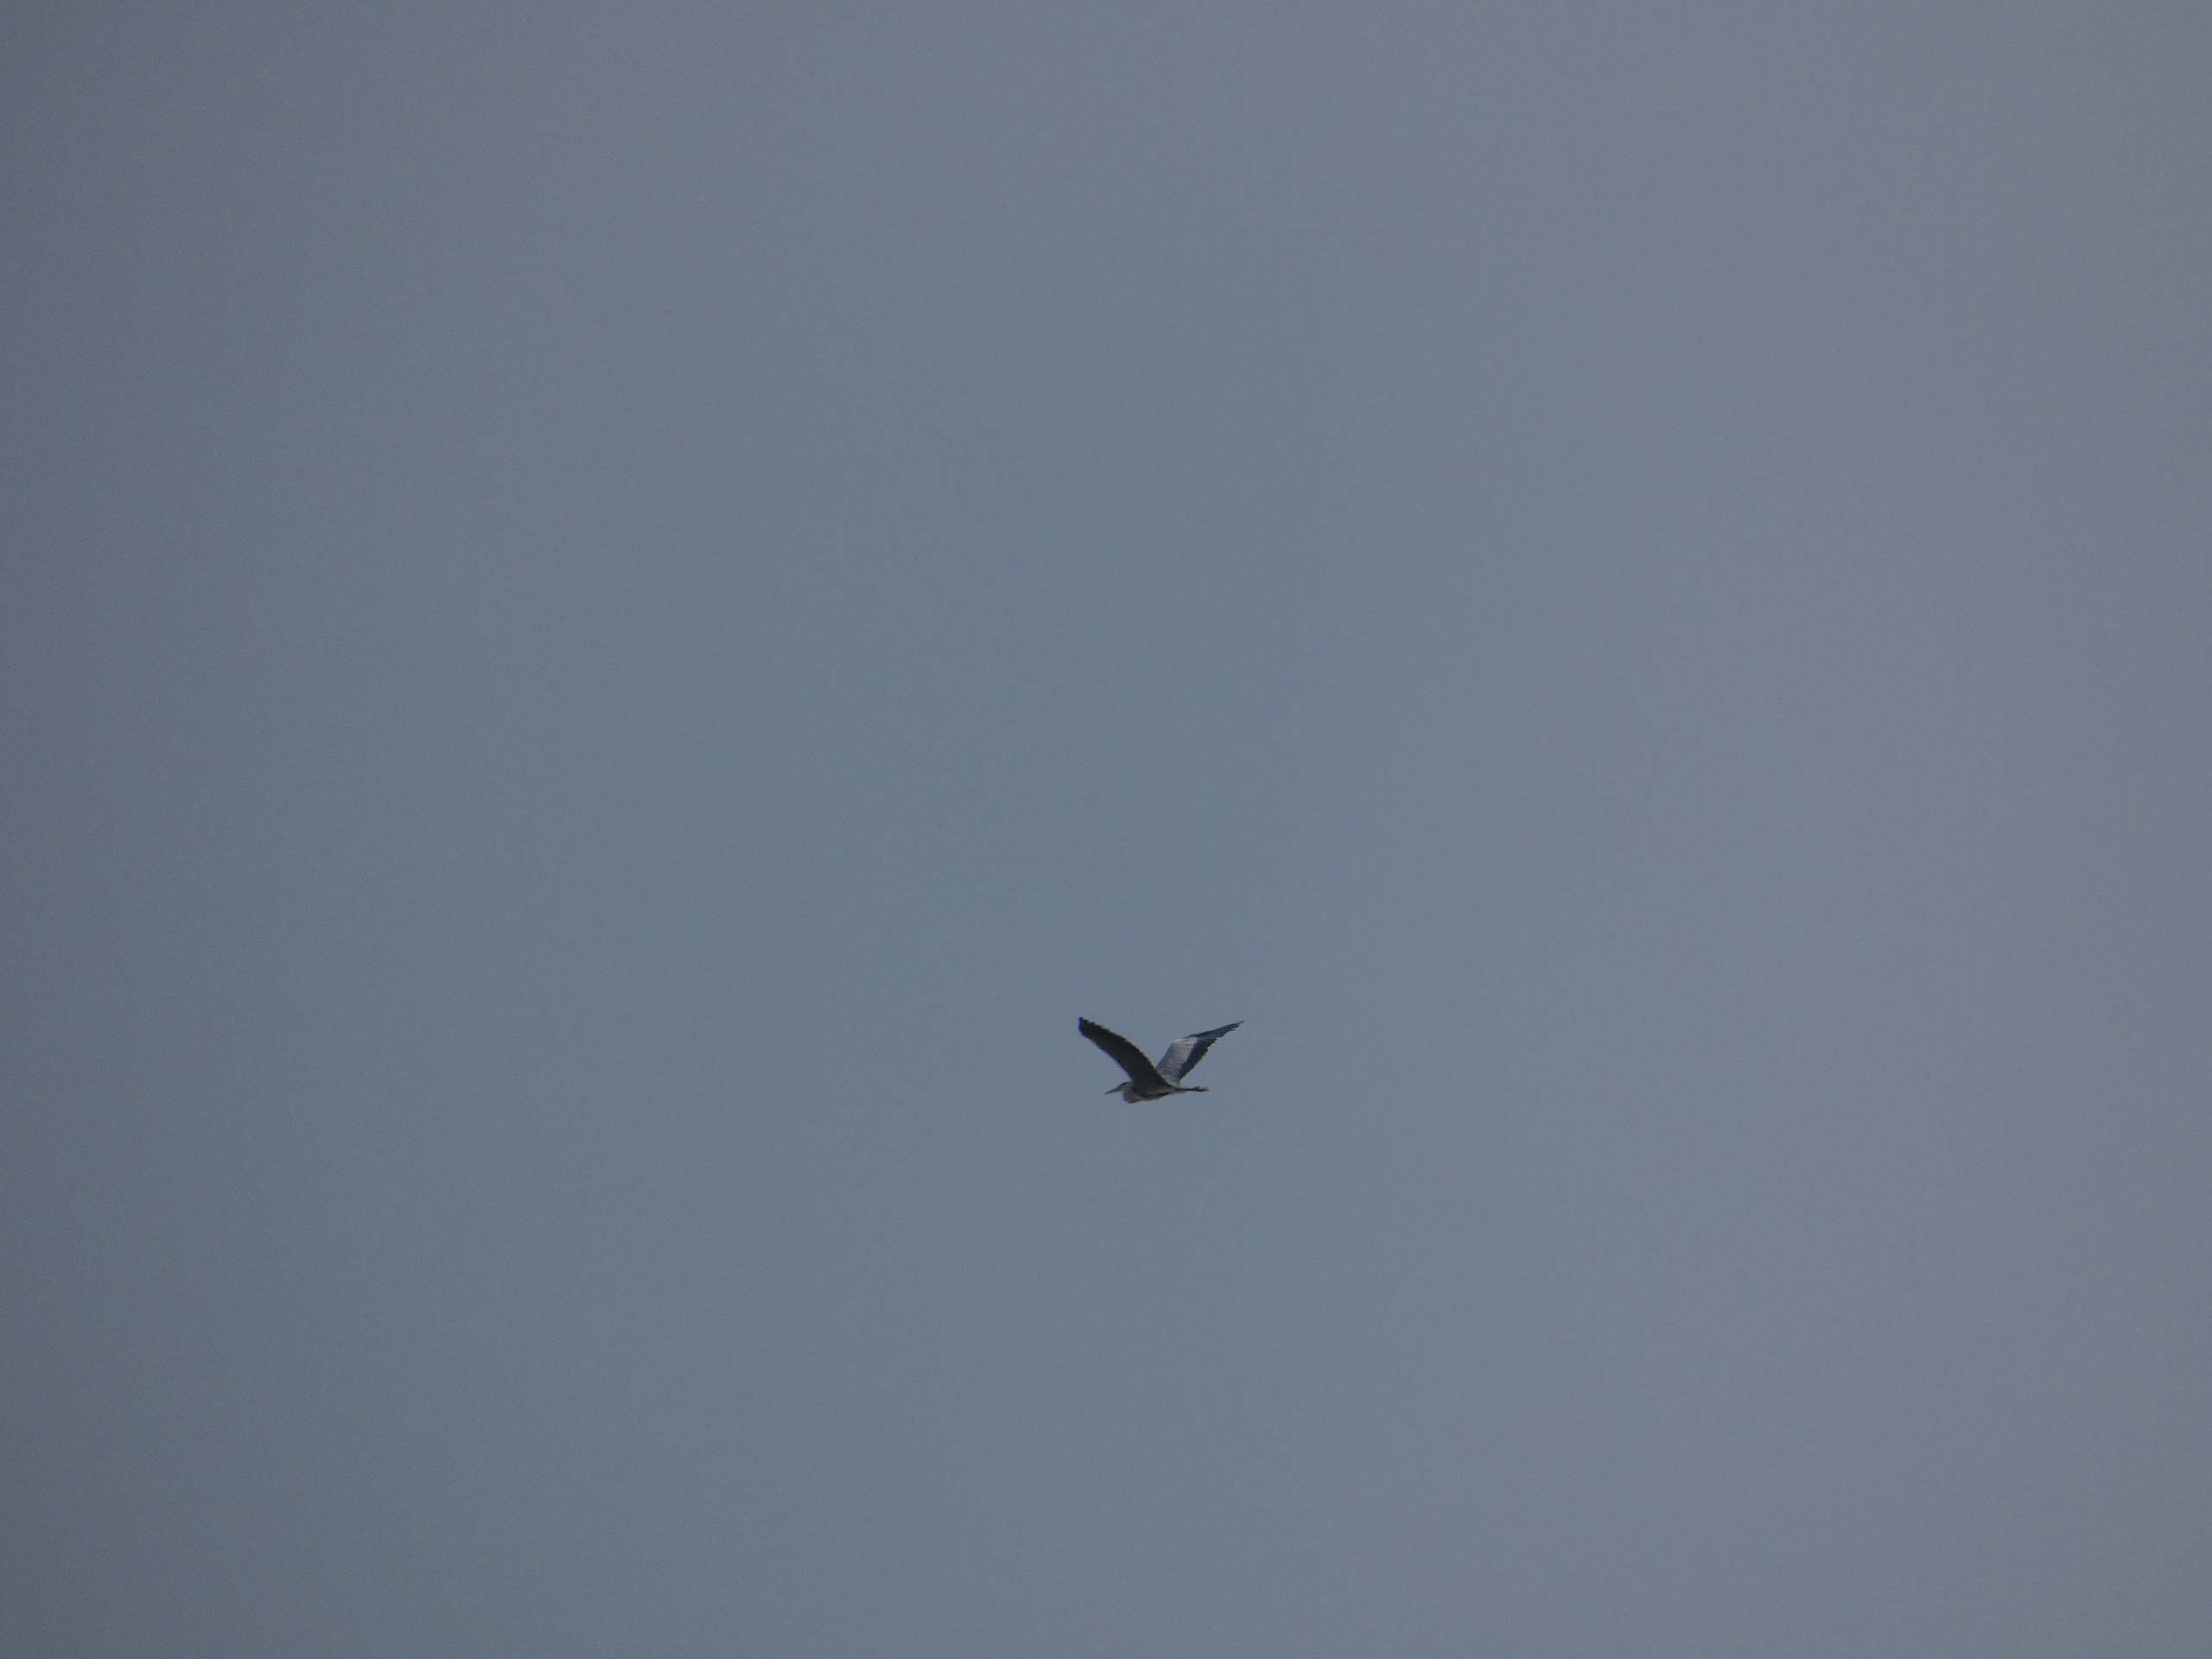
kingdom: Animalia
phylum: Chordata
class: Aves
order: Pelecaniformes
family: Ardeidae
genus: Ardea
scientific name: Ardea cinerea
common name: Fiskehejre
